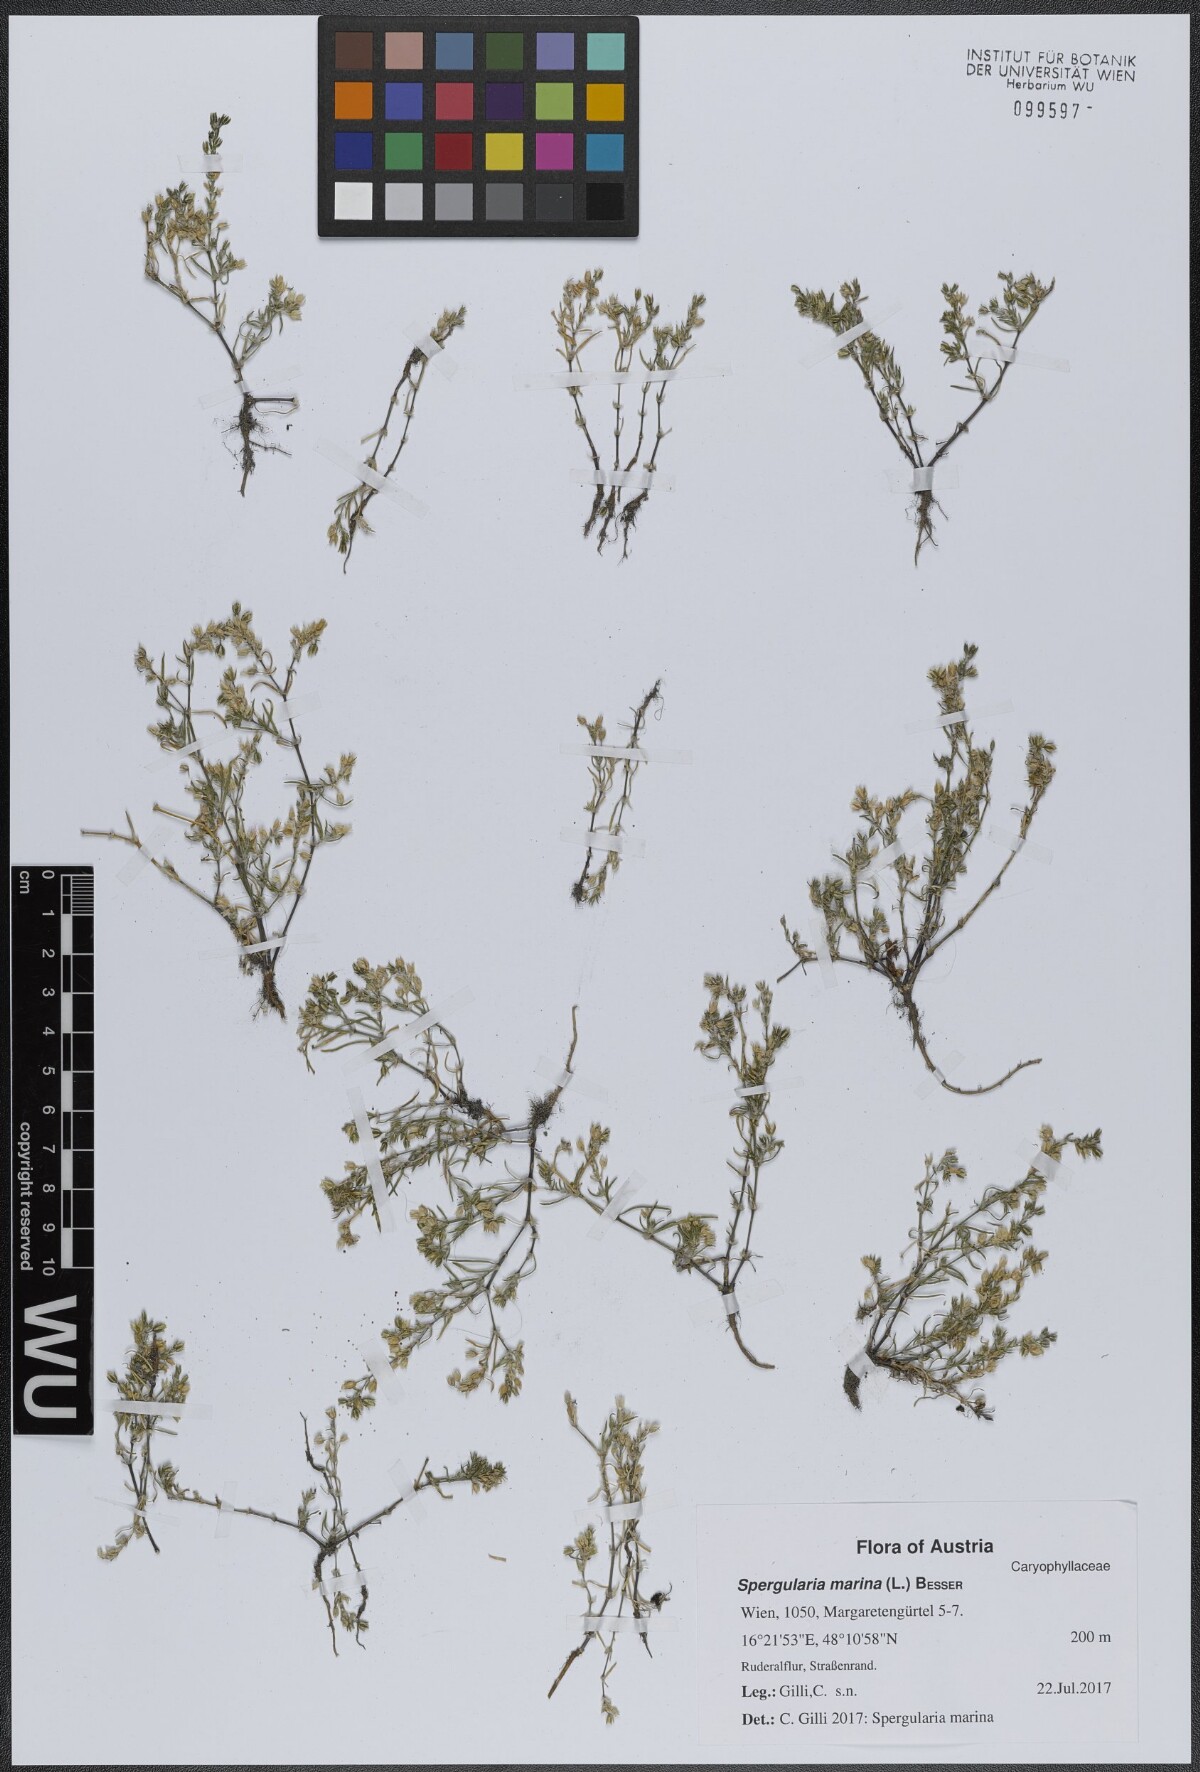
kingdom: Plantae
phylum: Tracheophyta
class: Magnoliopsida
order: Caryophyllales
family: Caryophyllaceae
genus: Spergularia
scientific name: Spergularia marina
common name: Lesser sea-spurrey
